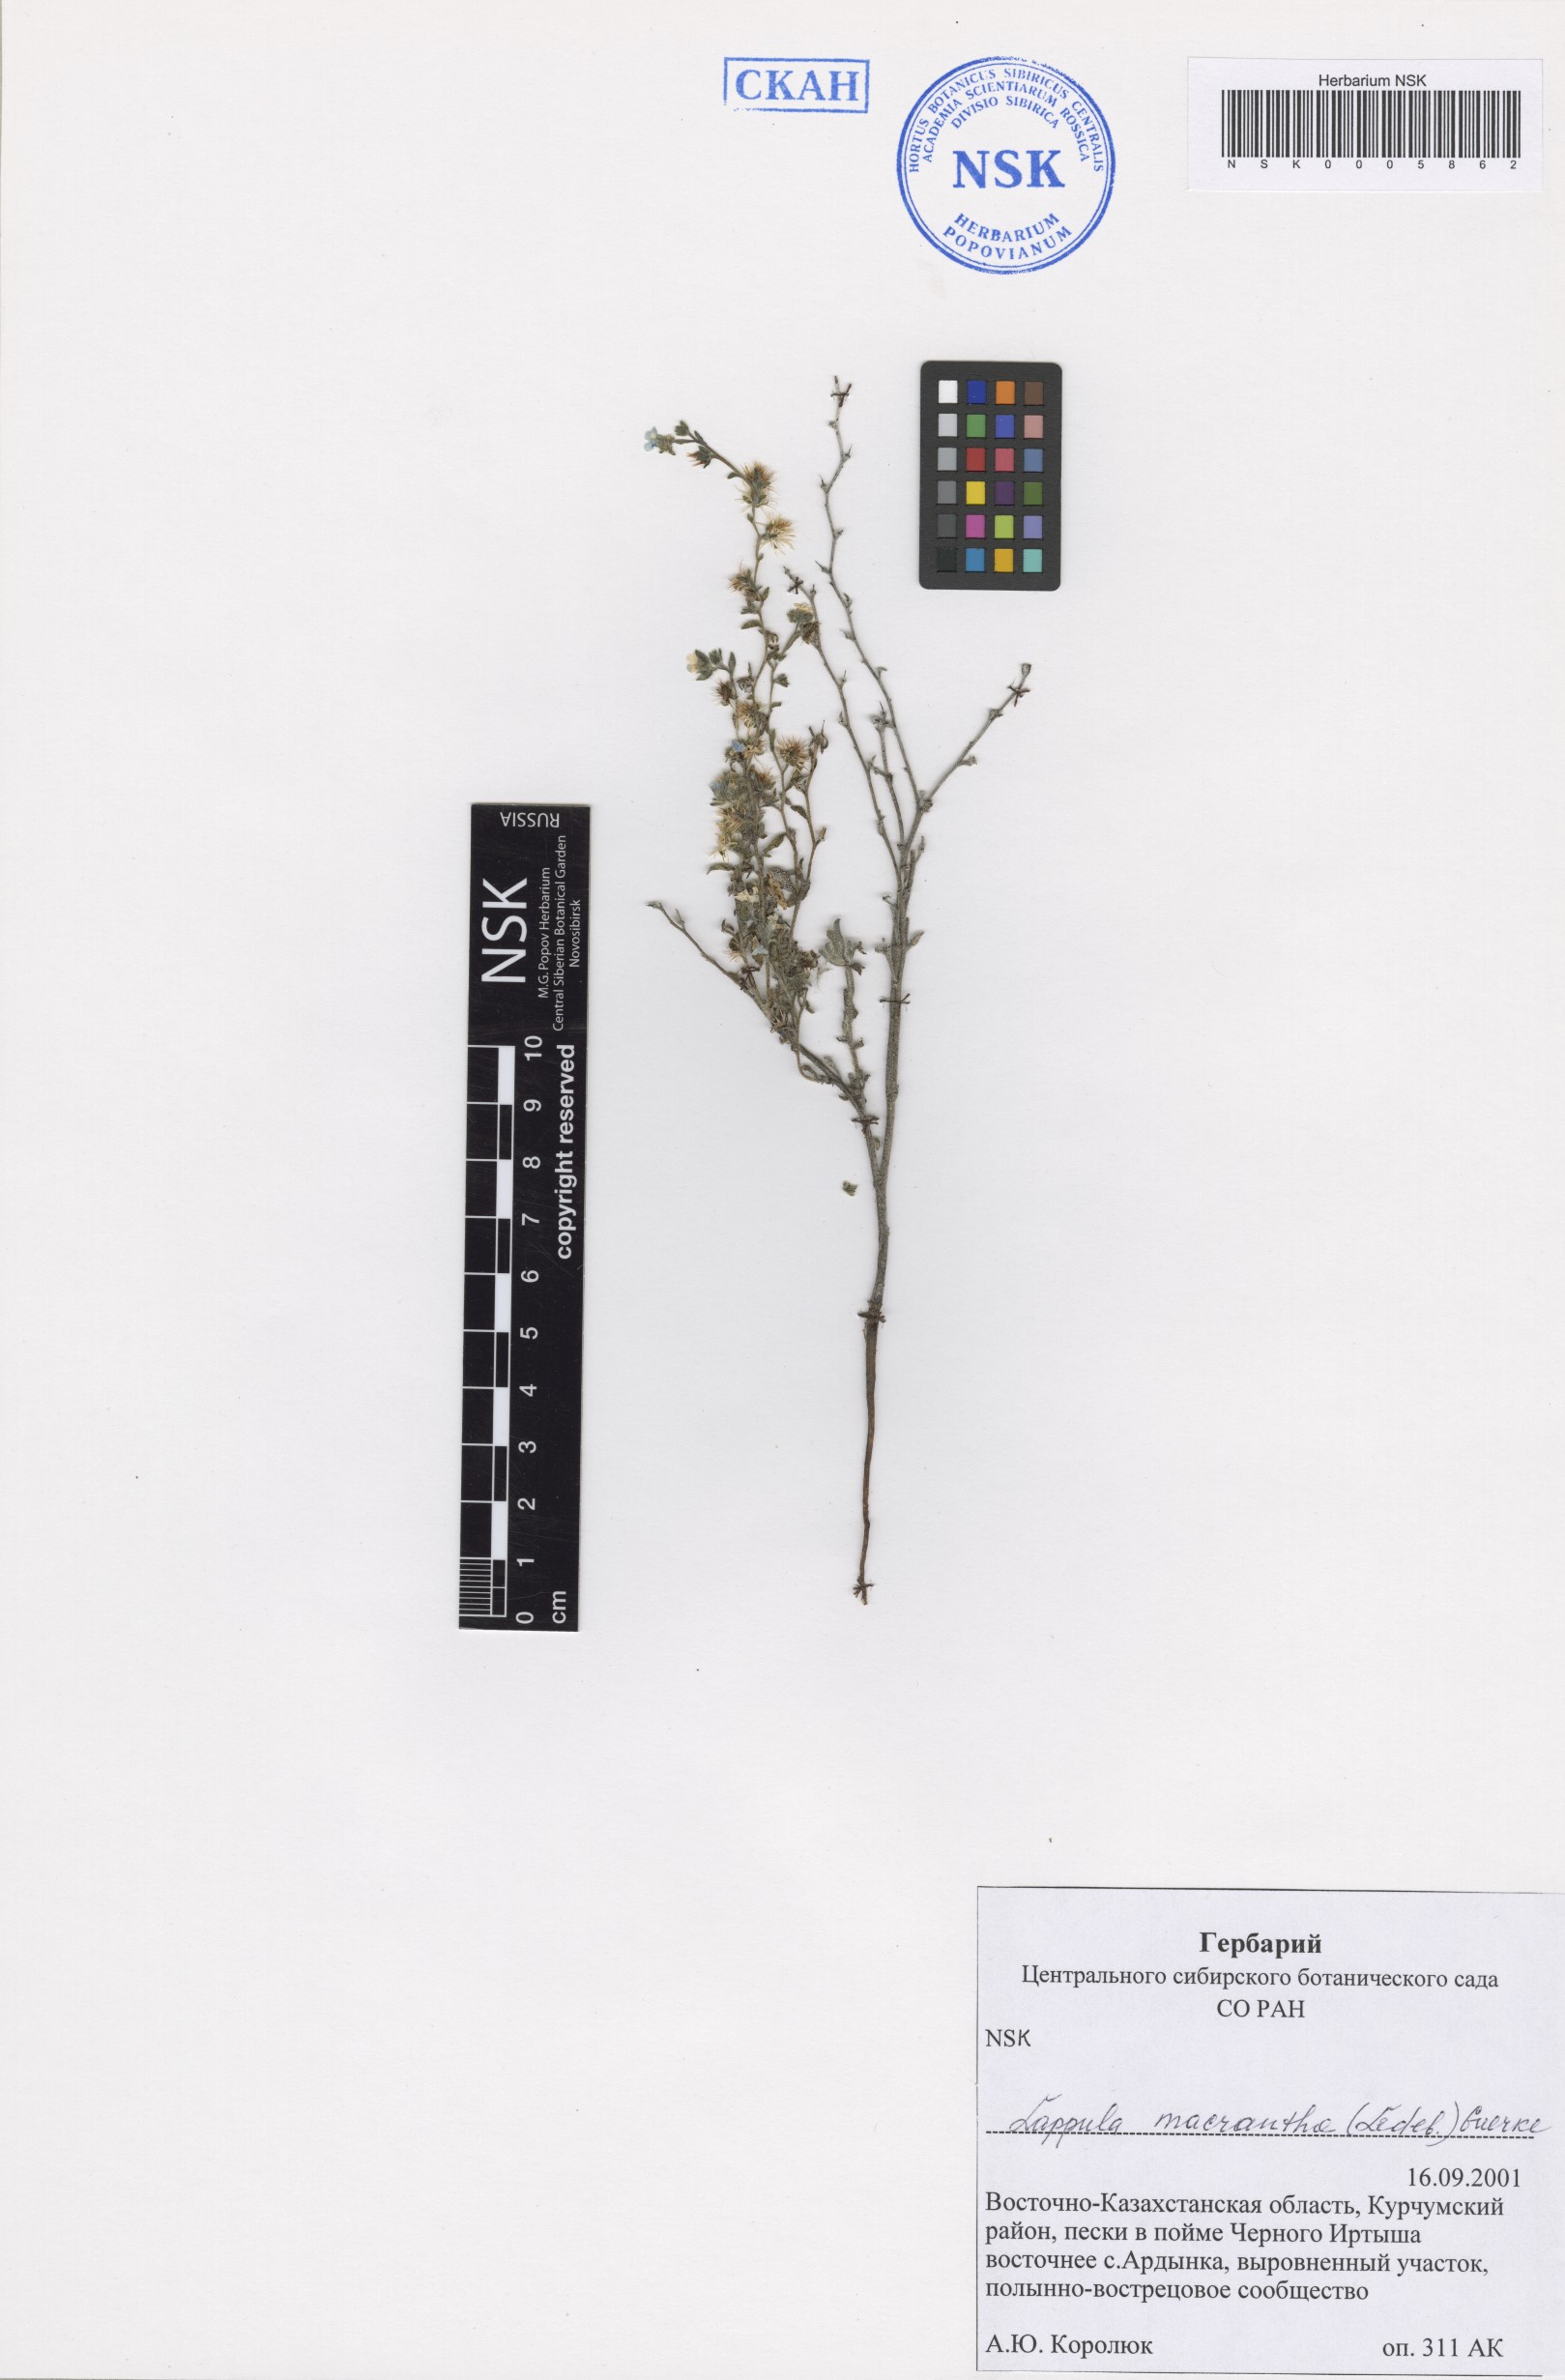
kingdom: Plantae
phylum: Tracheophyta
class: Magnoliopsida
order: Boraginales
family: Boraginaceae
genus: Lappula
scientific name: Lappula macrantha
